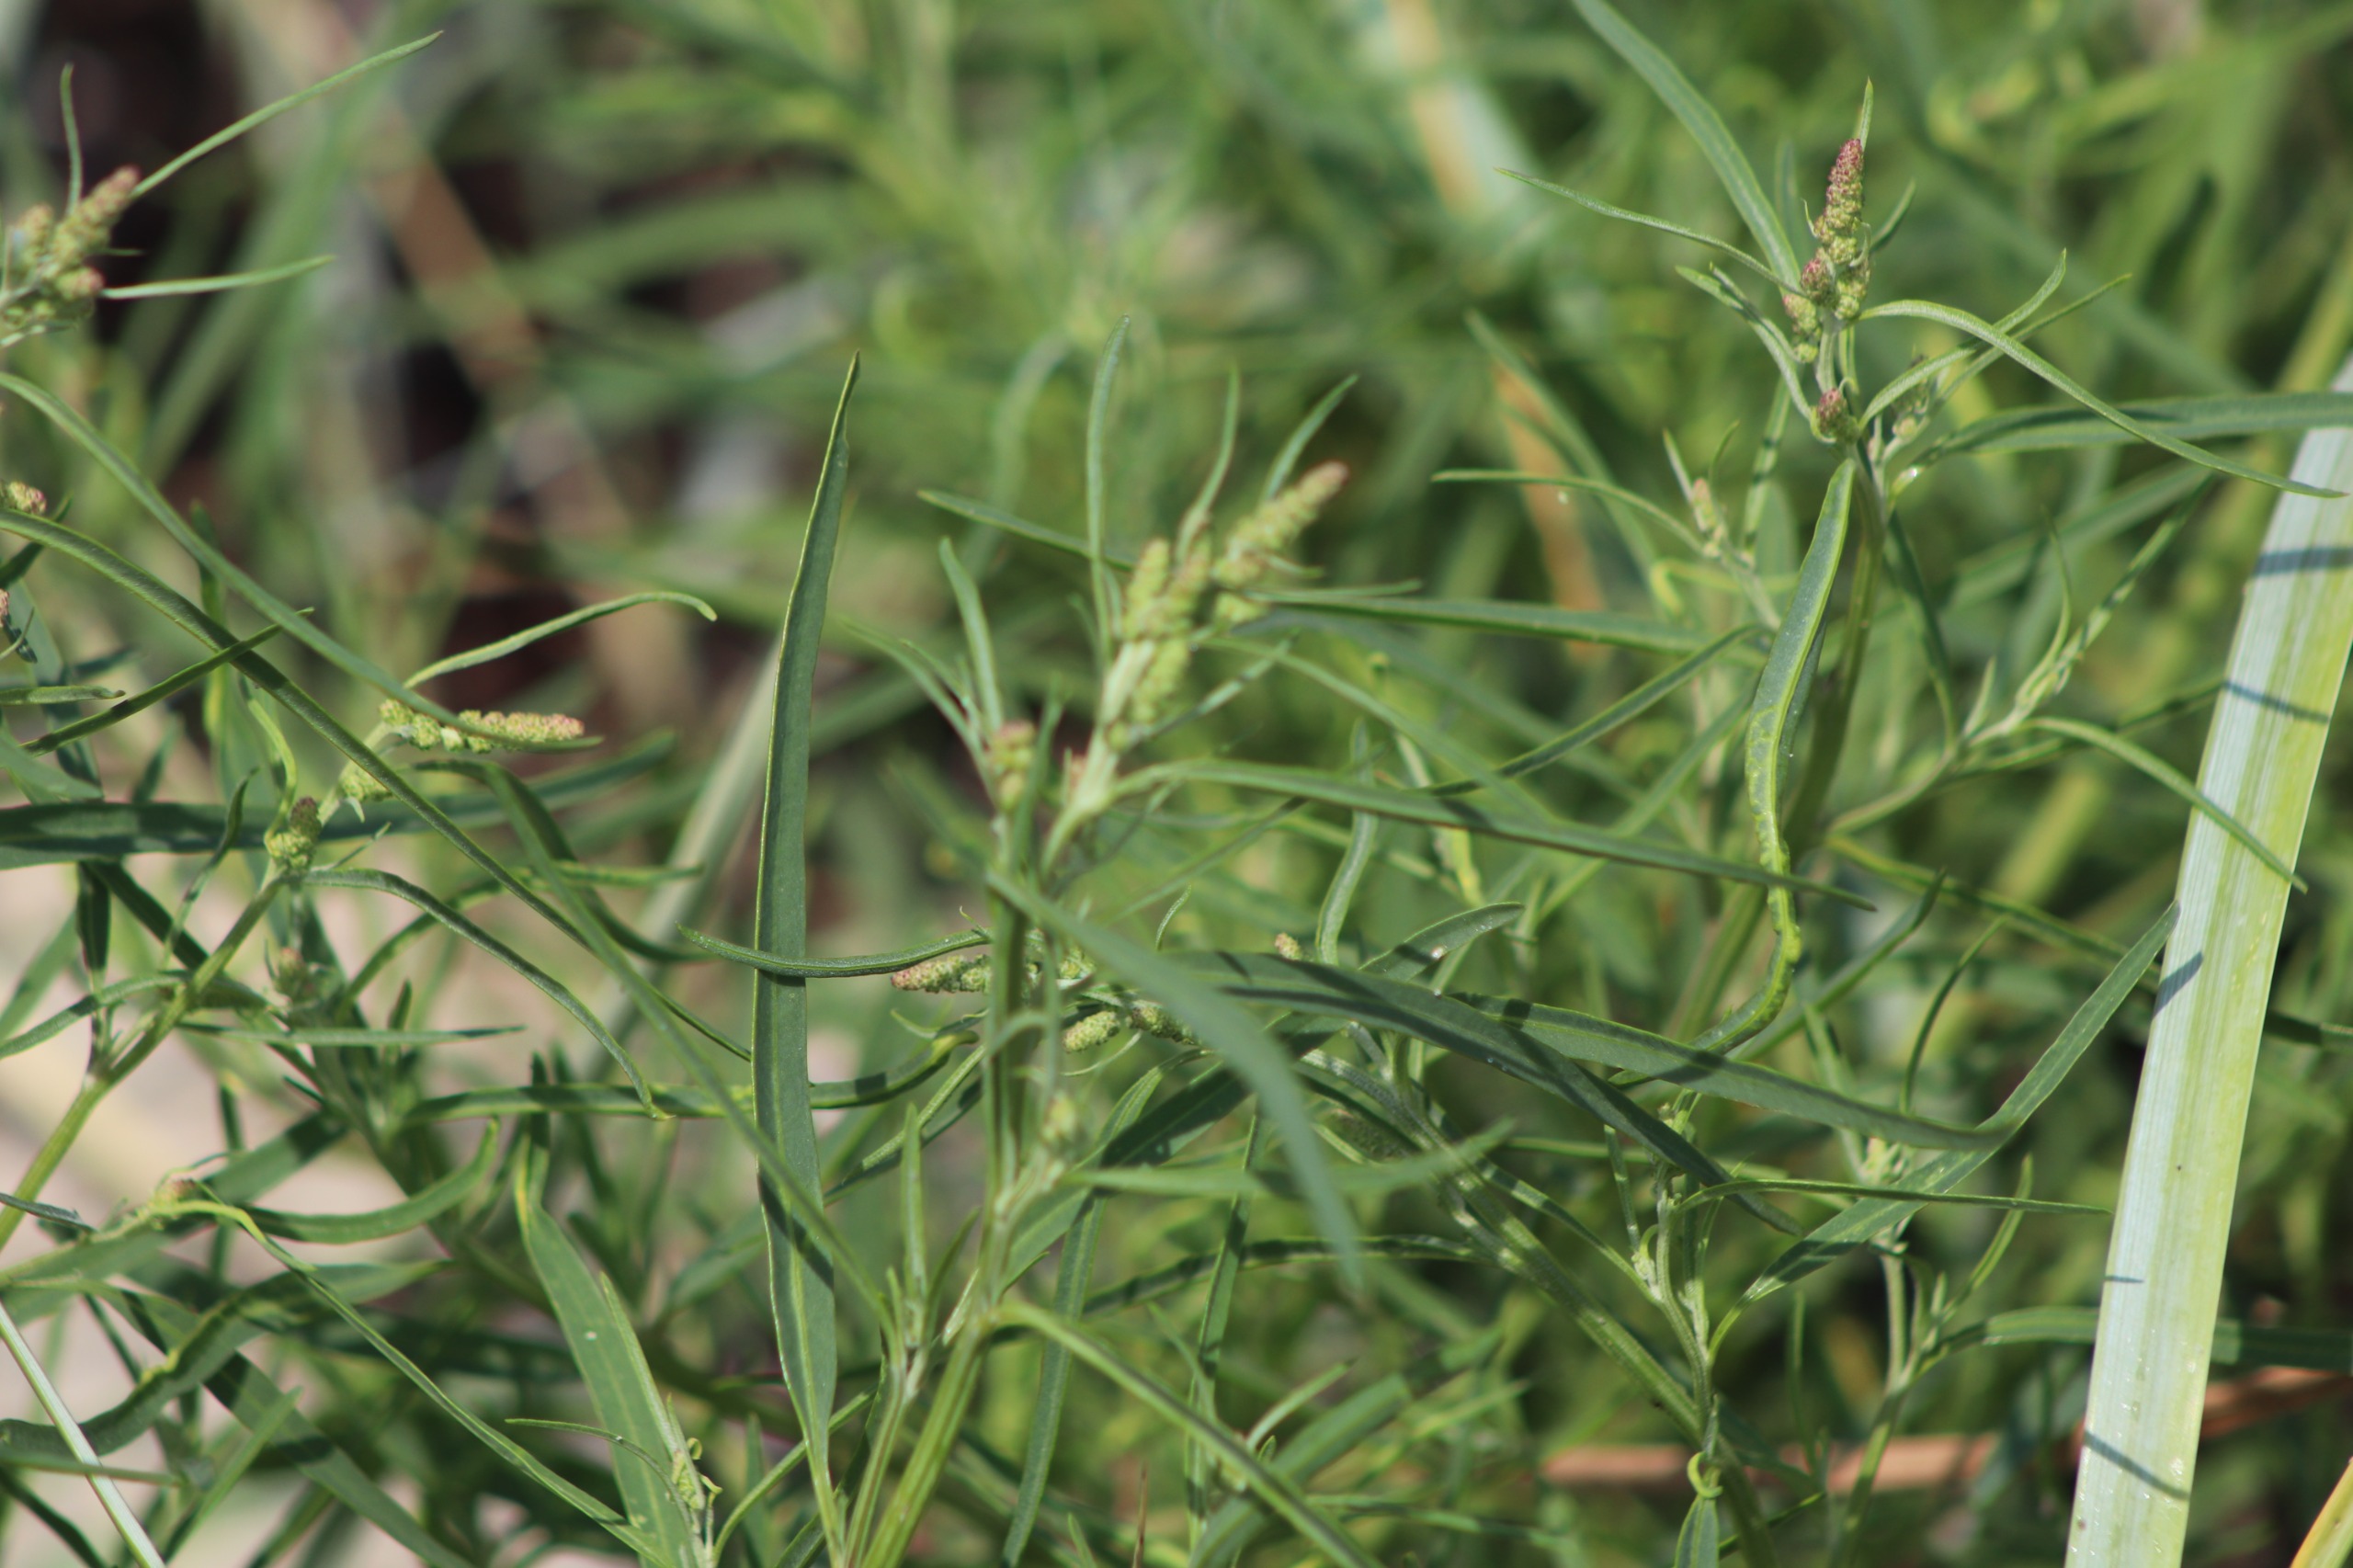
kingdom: Plantae
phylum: Tracheophyta
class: Magnoliopsida
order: Caryophyllales
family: Amaranthaceae
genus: Atriplex
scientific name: Atriplex littoralis
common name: Strand-mælde
